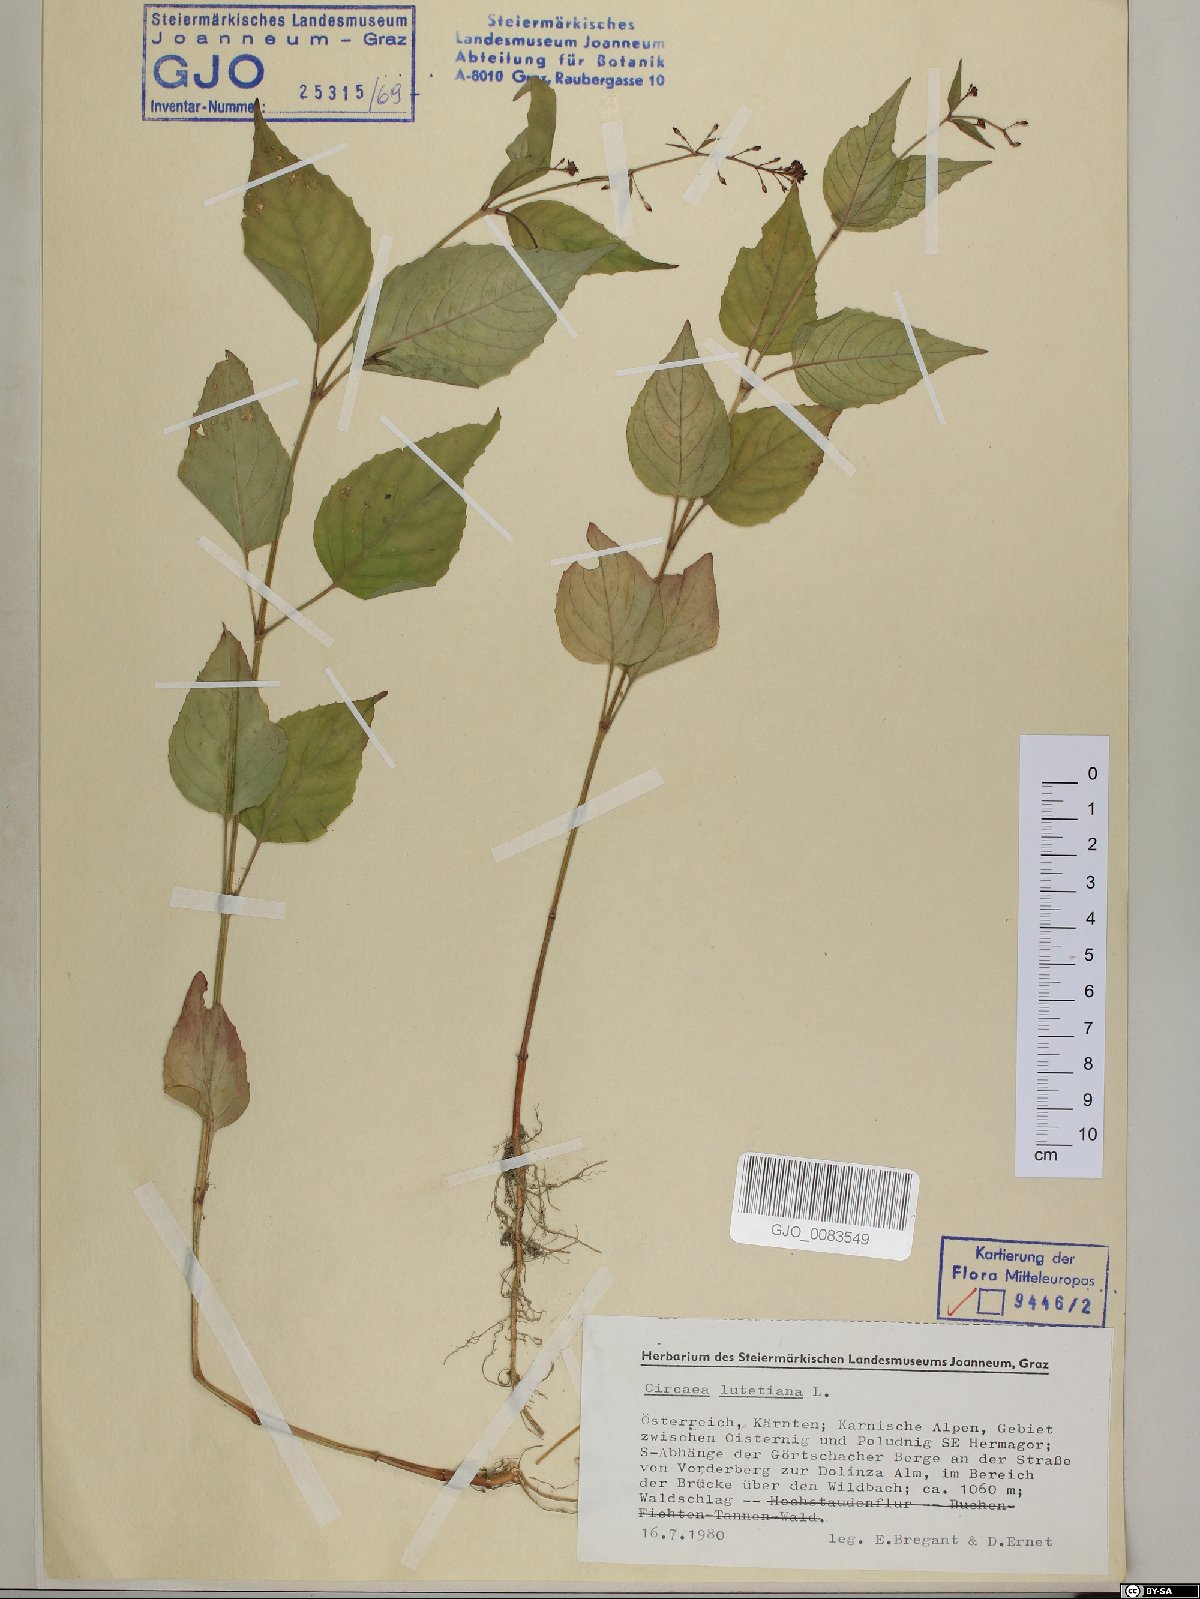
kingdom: Plantae
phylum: Tracheophyta
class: Magnoliopsida
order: Myrtales
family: Onagraceae
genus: Circaea
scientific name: Circaea lutetiana
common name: Enchanter's-nightshade
